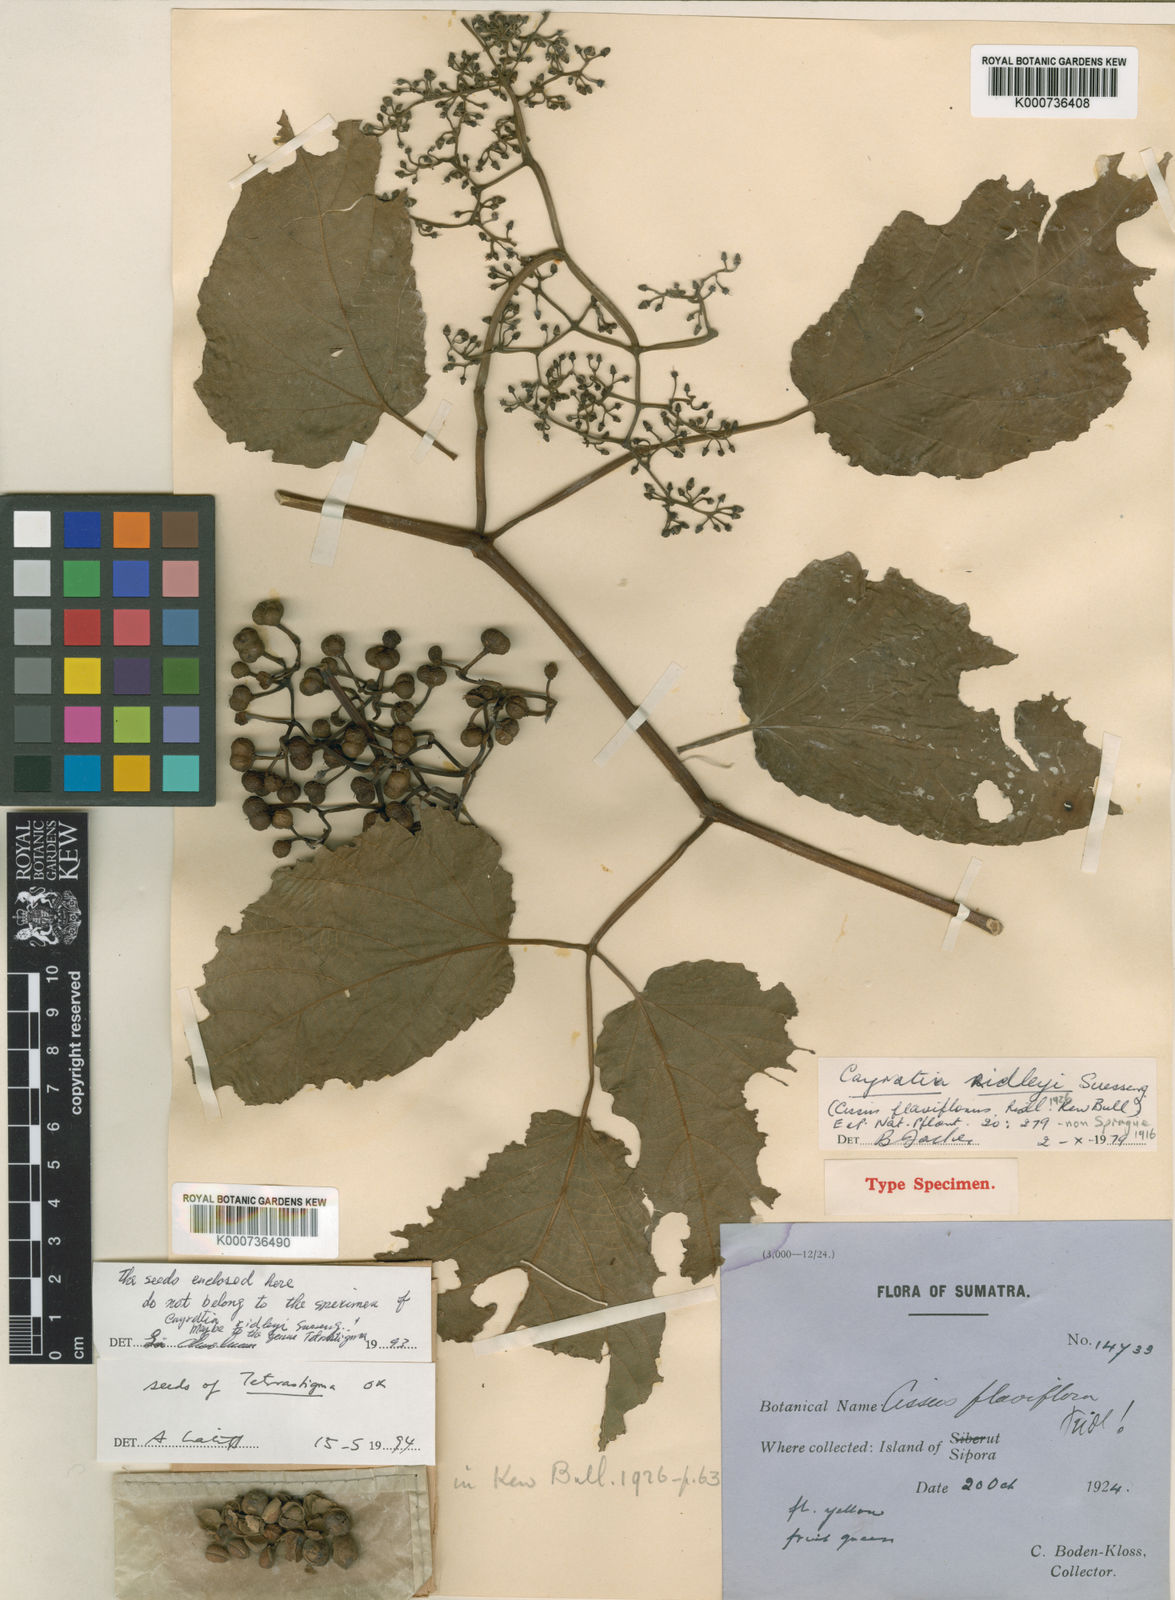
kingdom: Plantae
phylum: Tracheophyta
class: Magnoliopsida
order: Vitales
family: Vitaceae
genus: Cayratia
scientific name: Cayratia ridleyi
